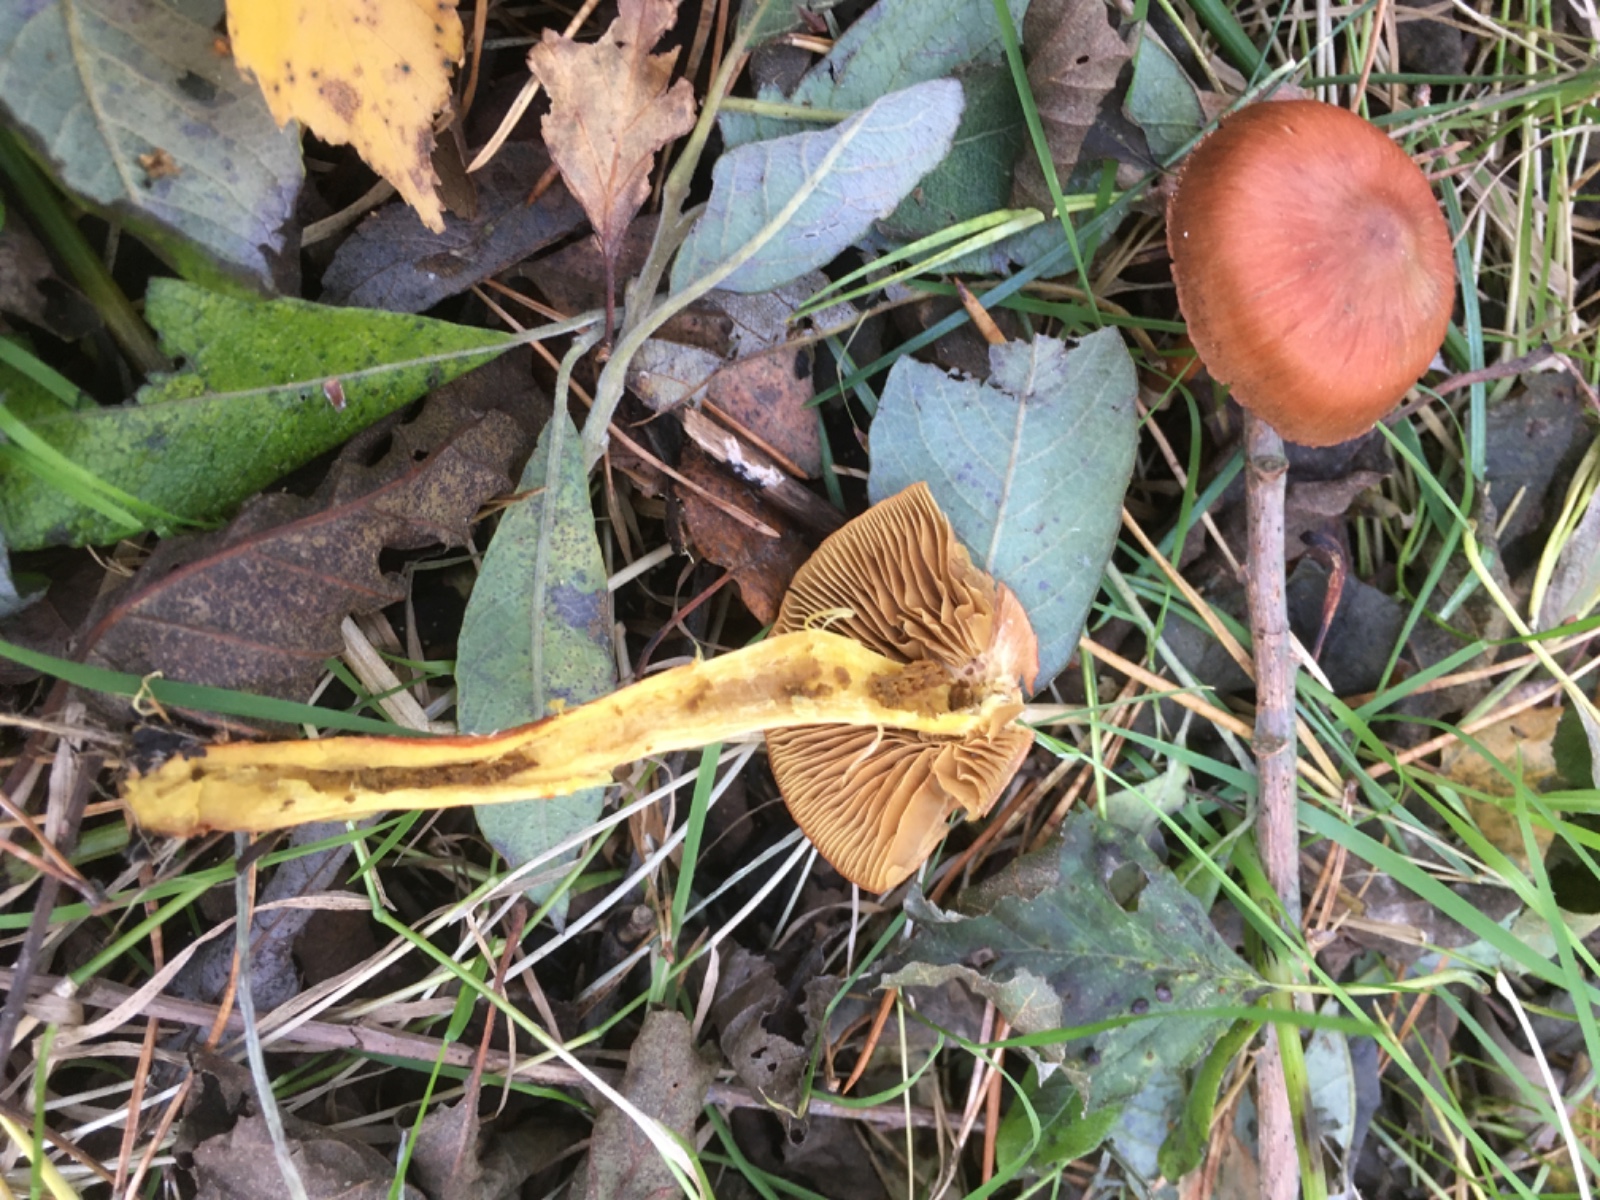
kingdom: Fungi
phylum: Basidiomycota
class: Agaricomycetes
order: Agaricales
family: Cortinariaceae
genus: Cortinarius
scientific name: Cortinarius uliginosus
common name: mose-slørhat
